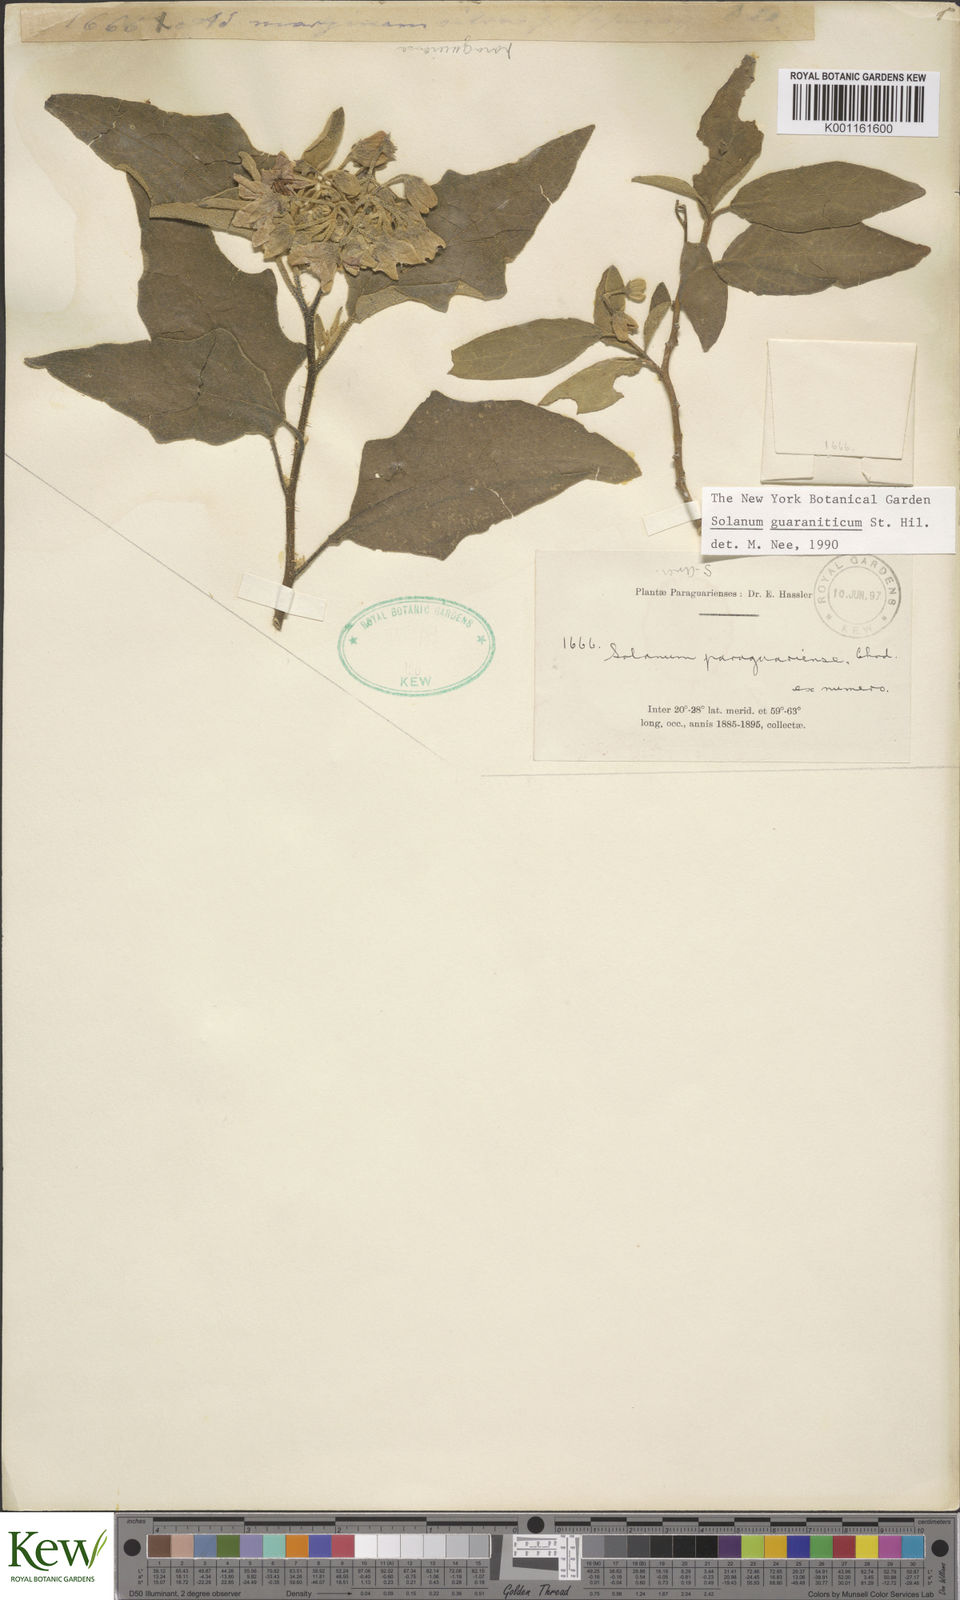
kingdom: Plantae
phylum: Tracheophyta
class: Magnoliopsida
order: Solanales
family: Solanaceae
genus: Solanum
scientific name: Solanum guaraniticum
